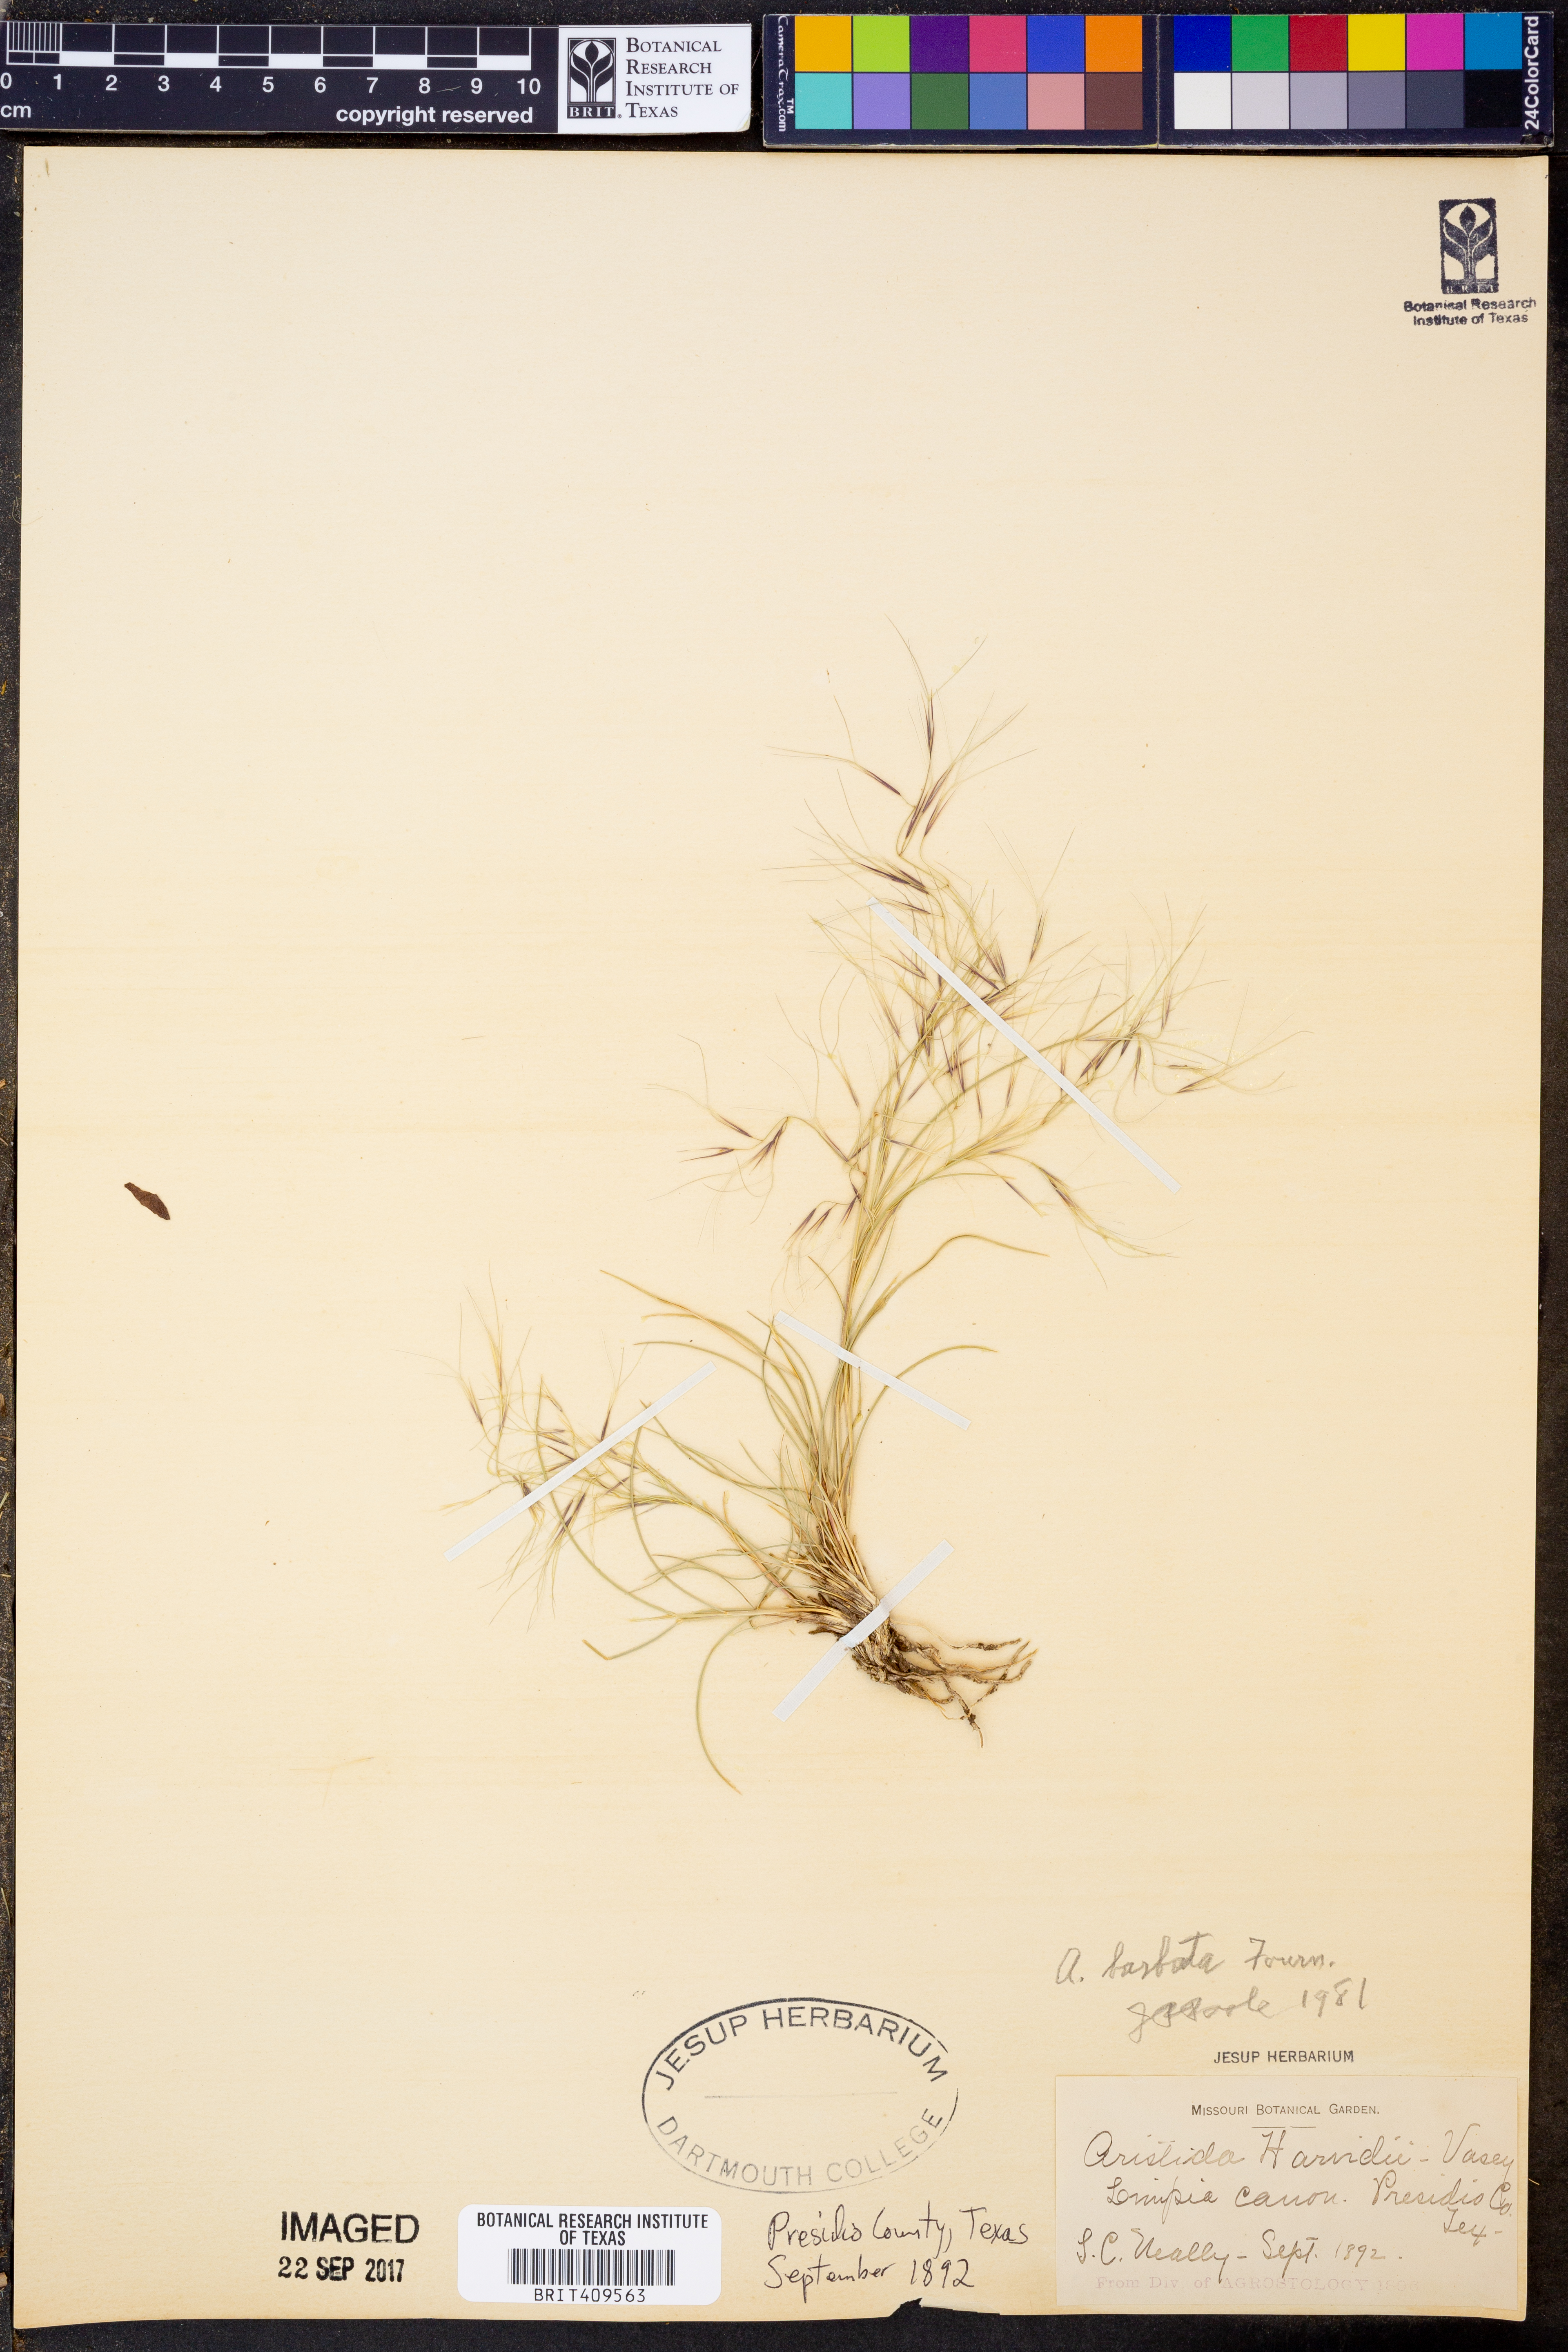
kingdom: Plantae
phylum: Tracheophyta
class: Liliopsida
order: Poales
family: Poaceae
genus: Aristida
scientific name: Aristida havardii
